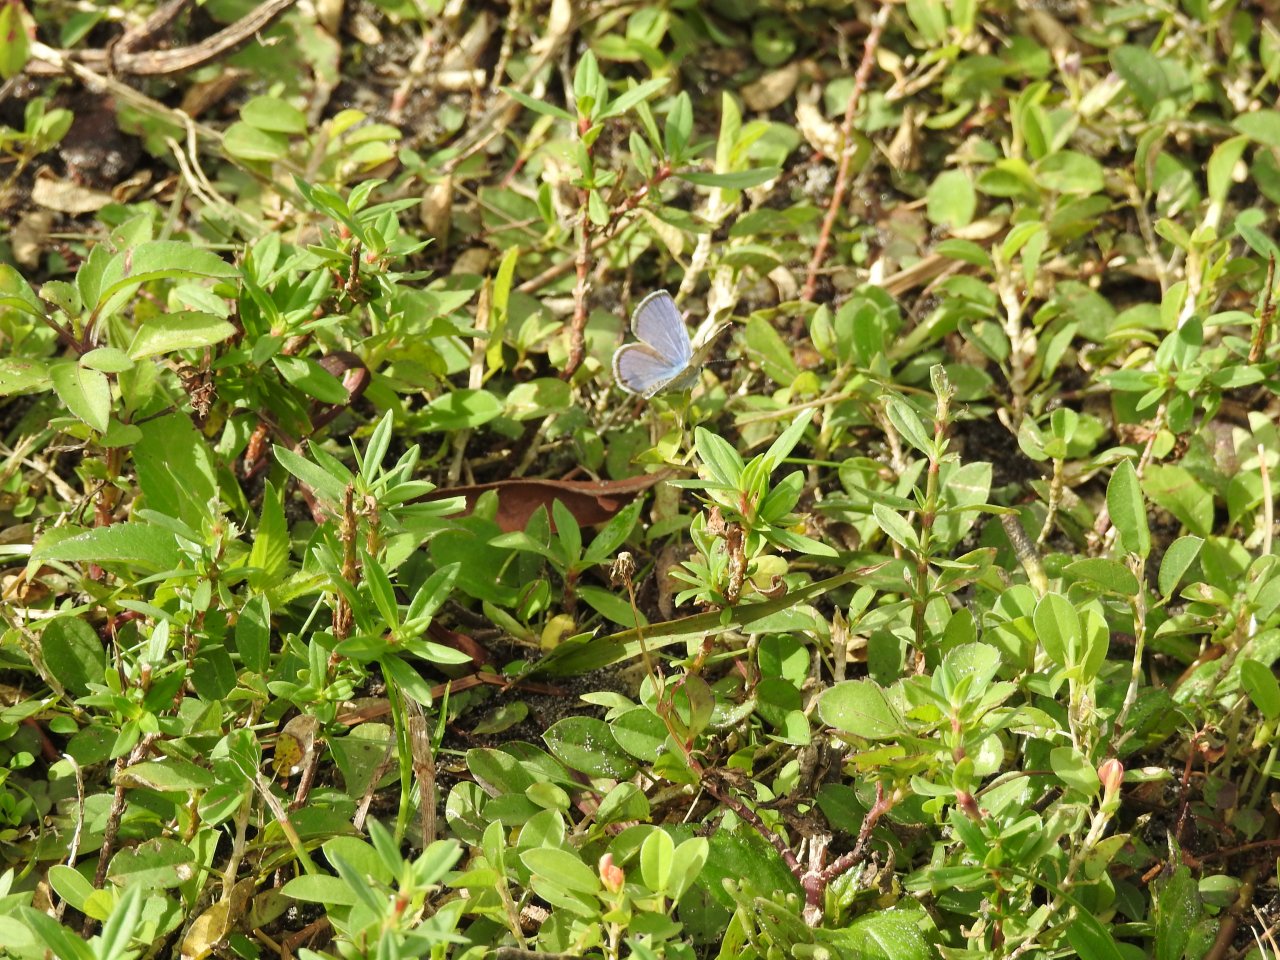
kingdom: Animalia
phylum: Arthropoda
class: Insecta
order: Lepidoptera
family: Lycaenidae
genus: Hemiargus
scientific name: Hemiargus ceraunus
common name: Ceraunus Blue
